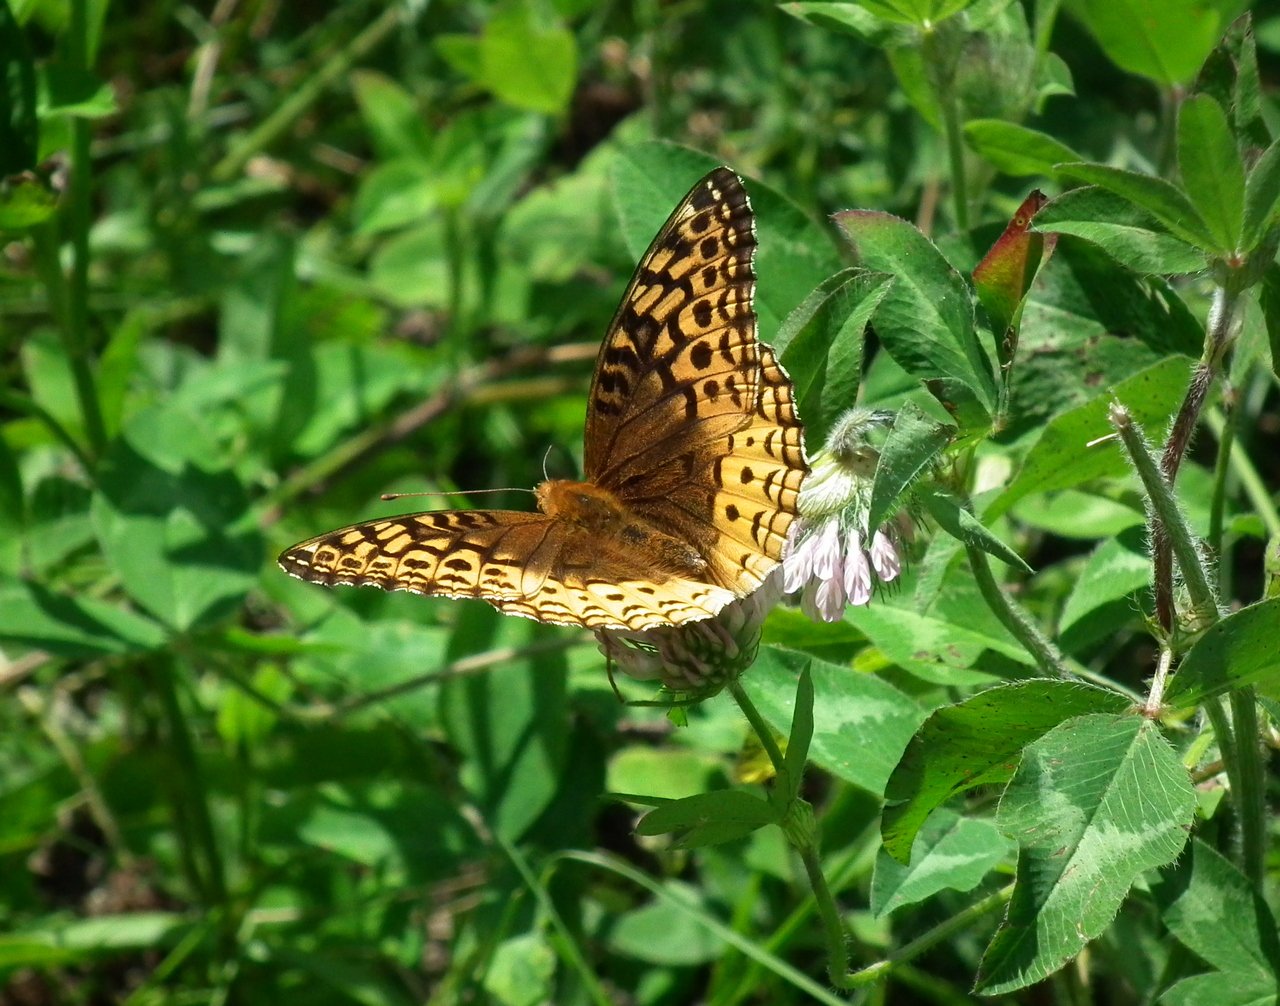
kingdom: Animalia
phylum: Arthropoda
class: Insecta
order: Lepidoptera
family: Nymphalidae
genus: Speyeria
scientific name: Speyeria cybele
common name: Great Spangled Fritillary
